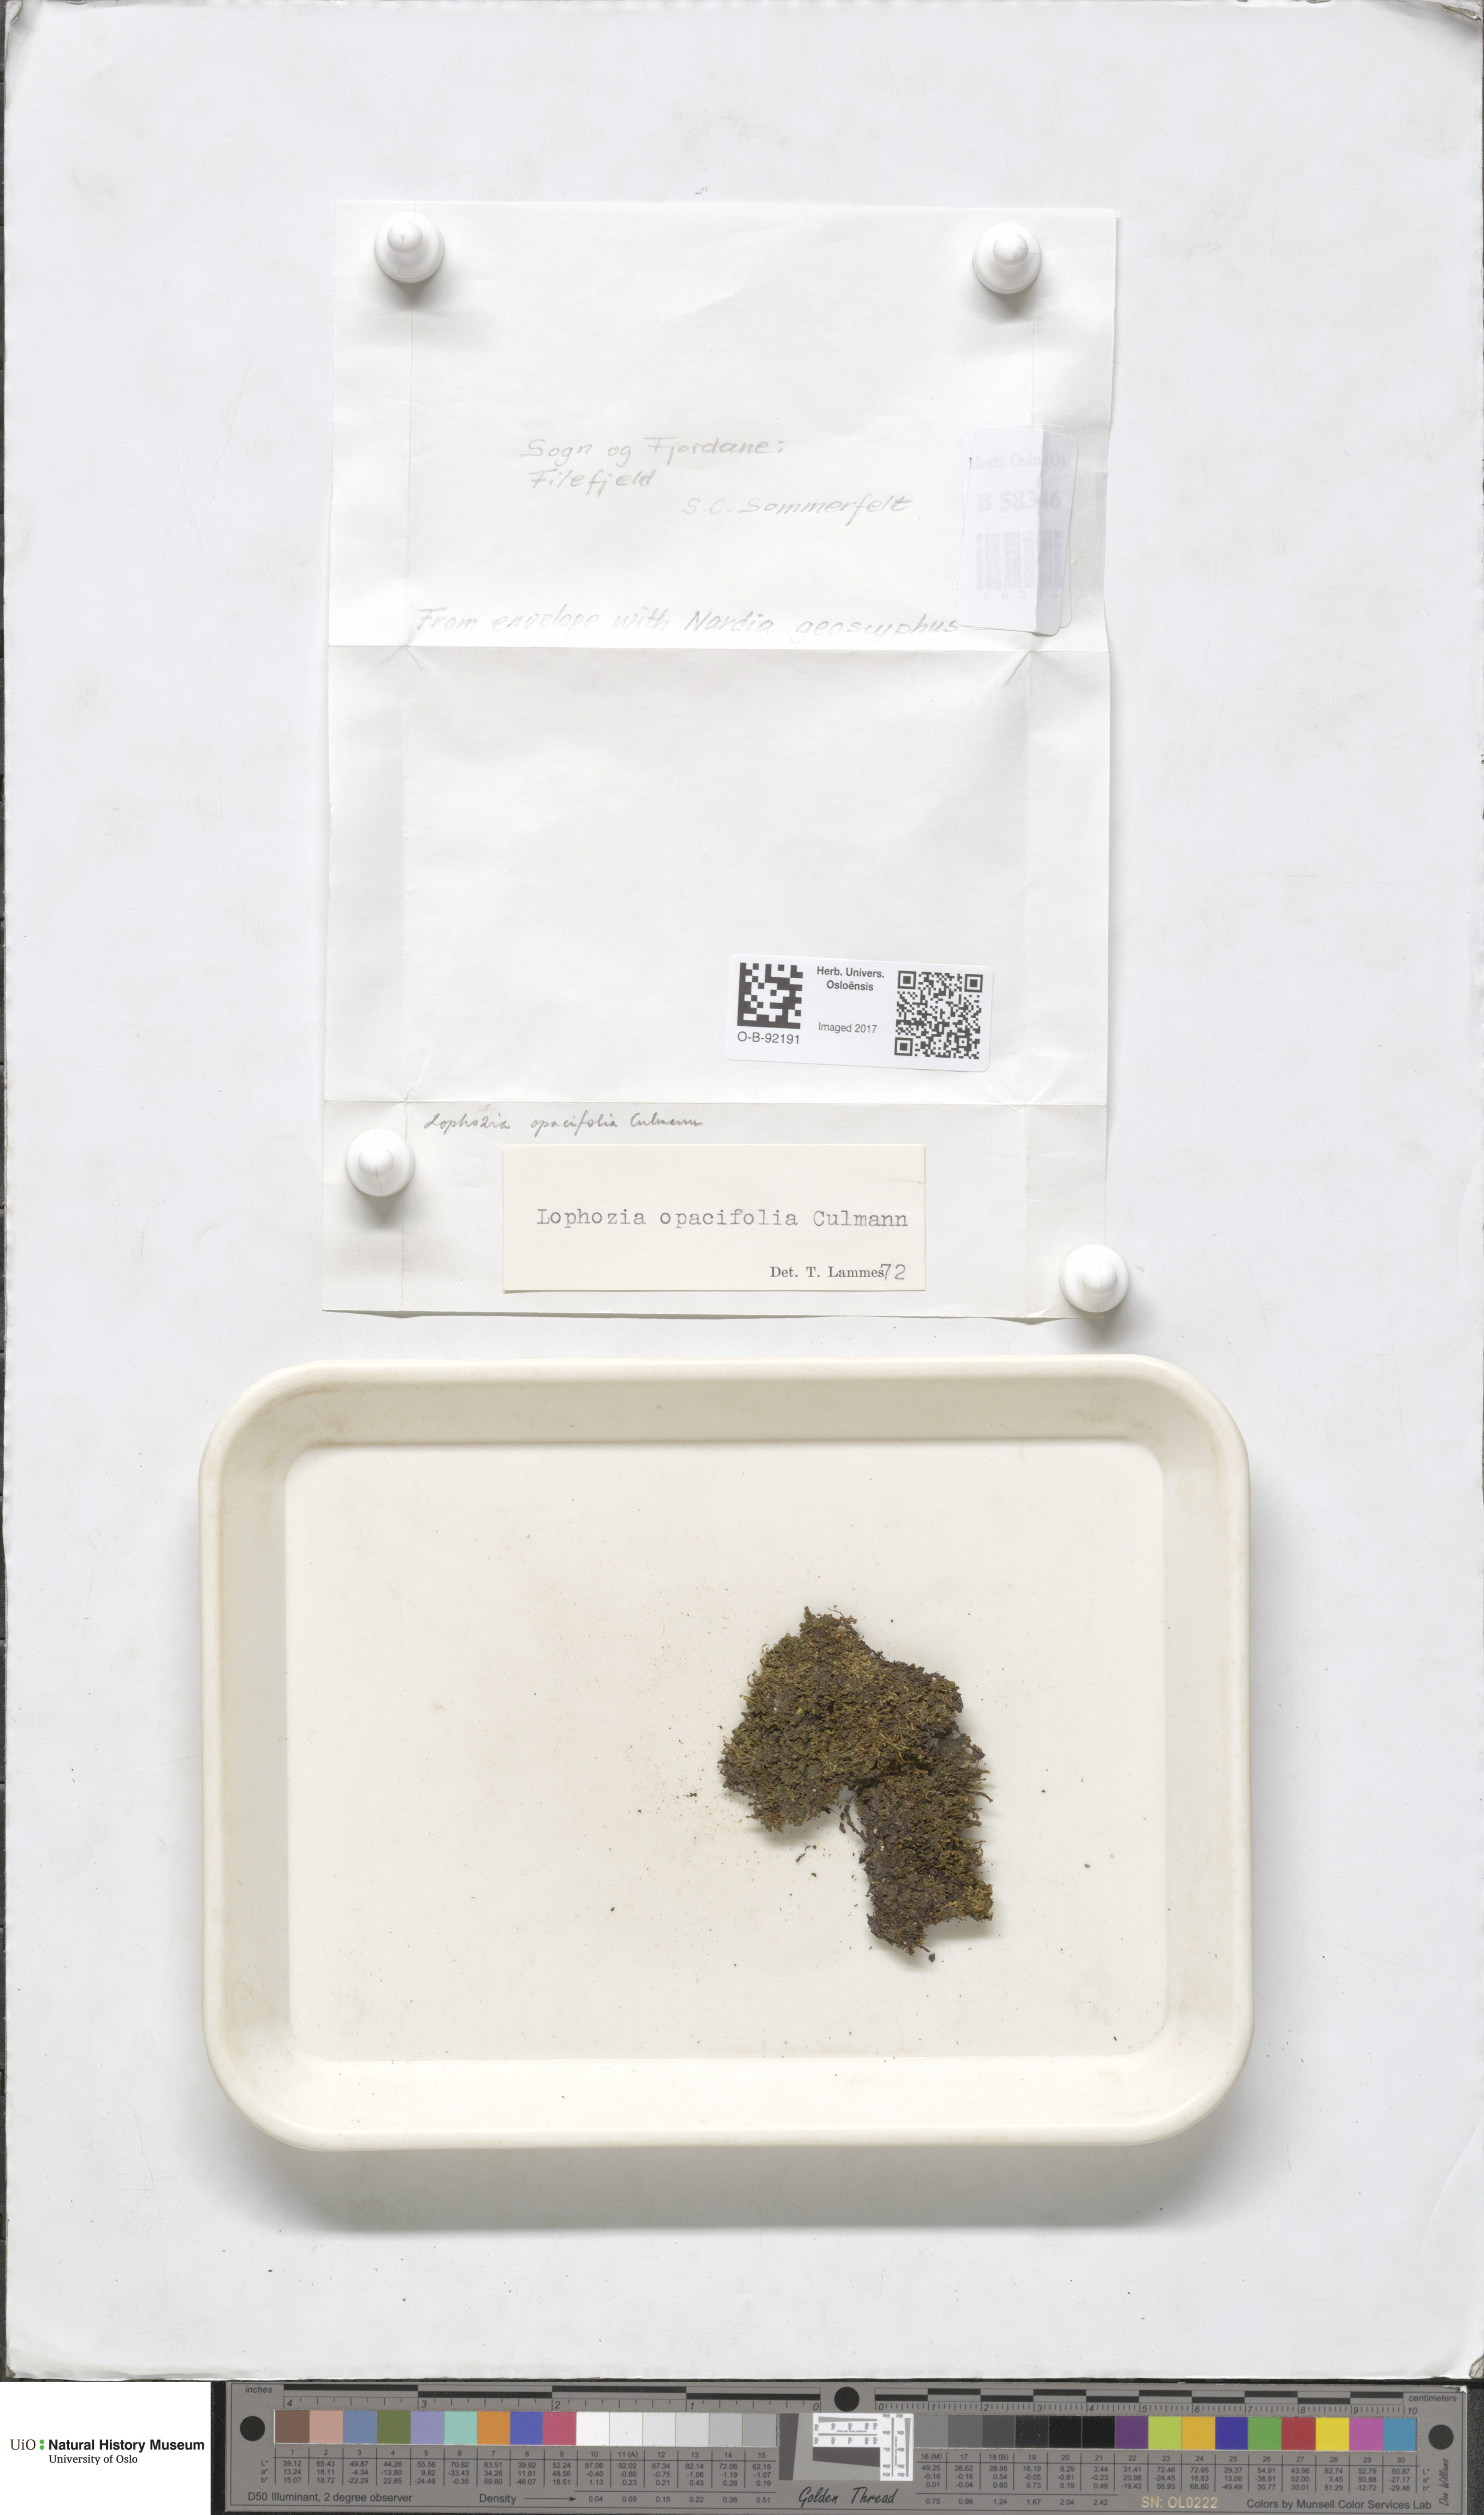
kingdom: Plantae
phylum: Marchantiophyta
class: Jungermanniopsida
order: Jungermanniales
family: Scapaniaceae
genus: Schistochilopsis
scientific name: Schistochilopsis opacifolia
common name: Alpine jagged notchwort
